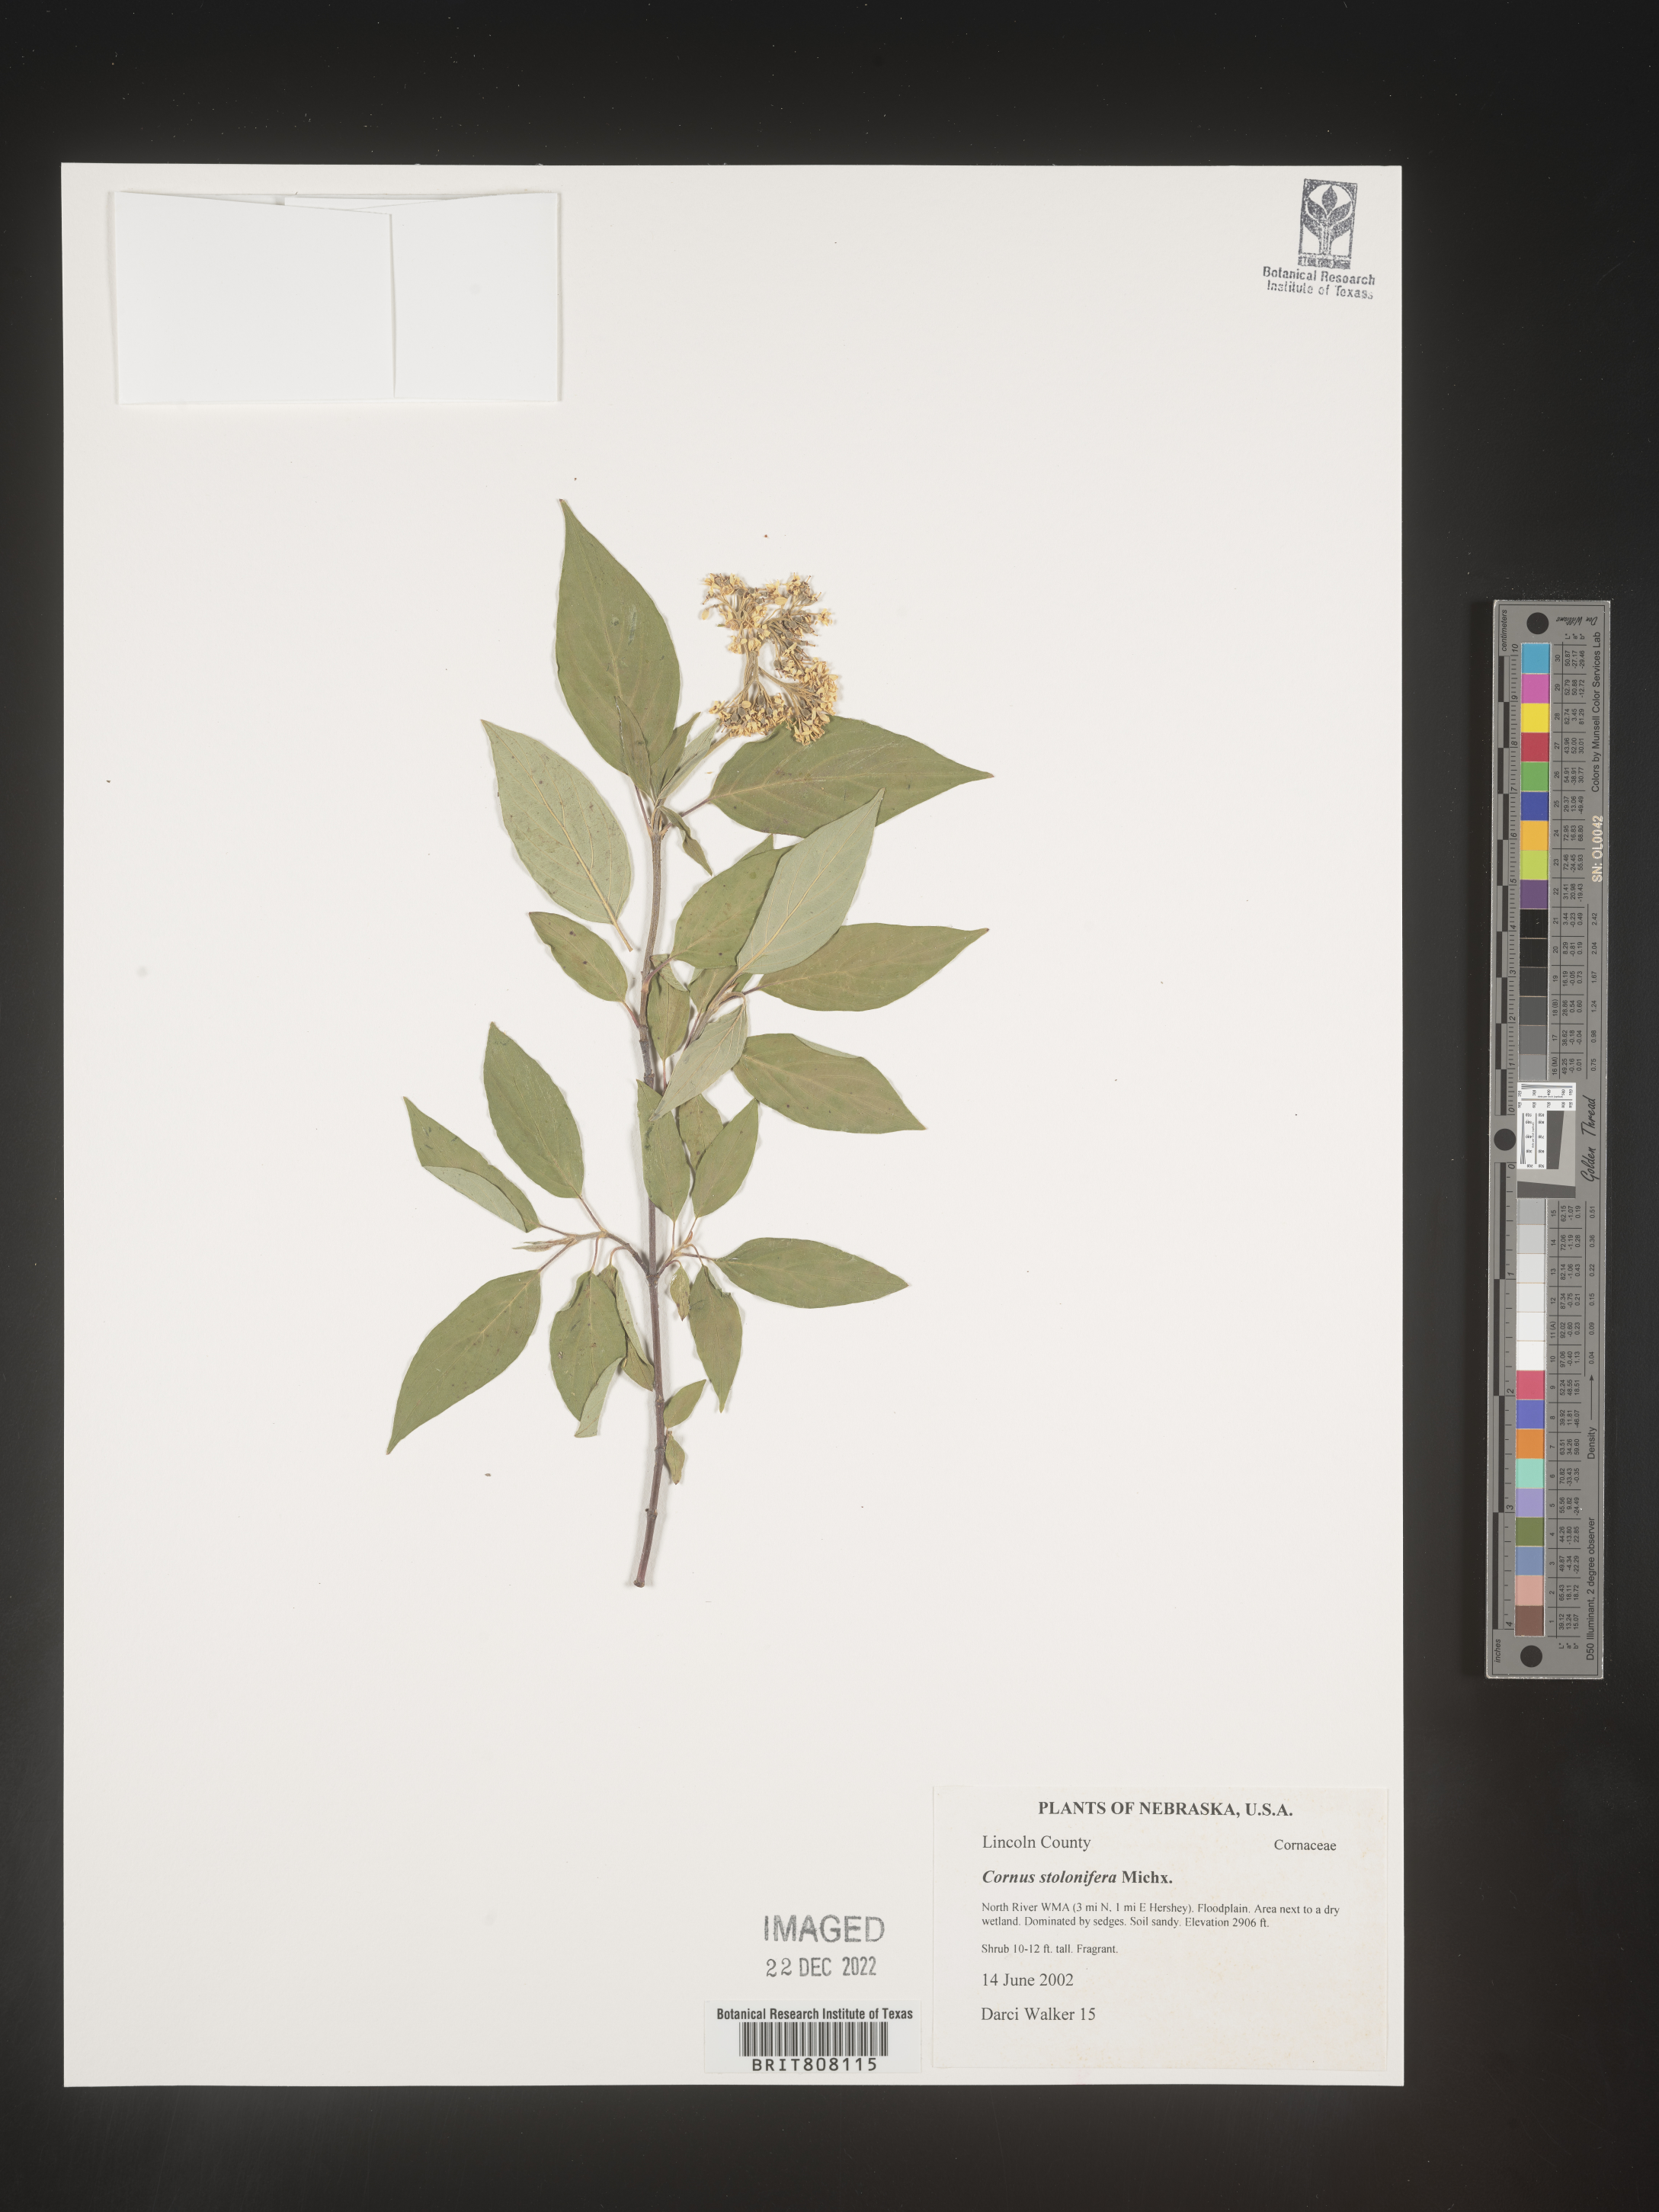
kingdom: Plantae
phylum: Tracheophyta
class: Magnoliopsida
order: Cornales
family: Cornaceae
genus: Cornus
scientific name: Cornus sericea
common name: Red-osier dogwood
